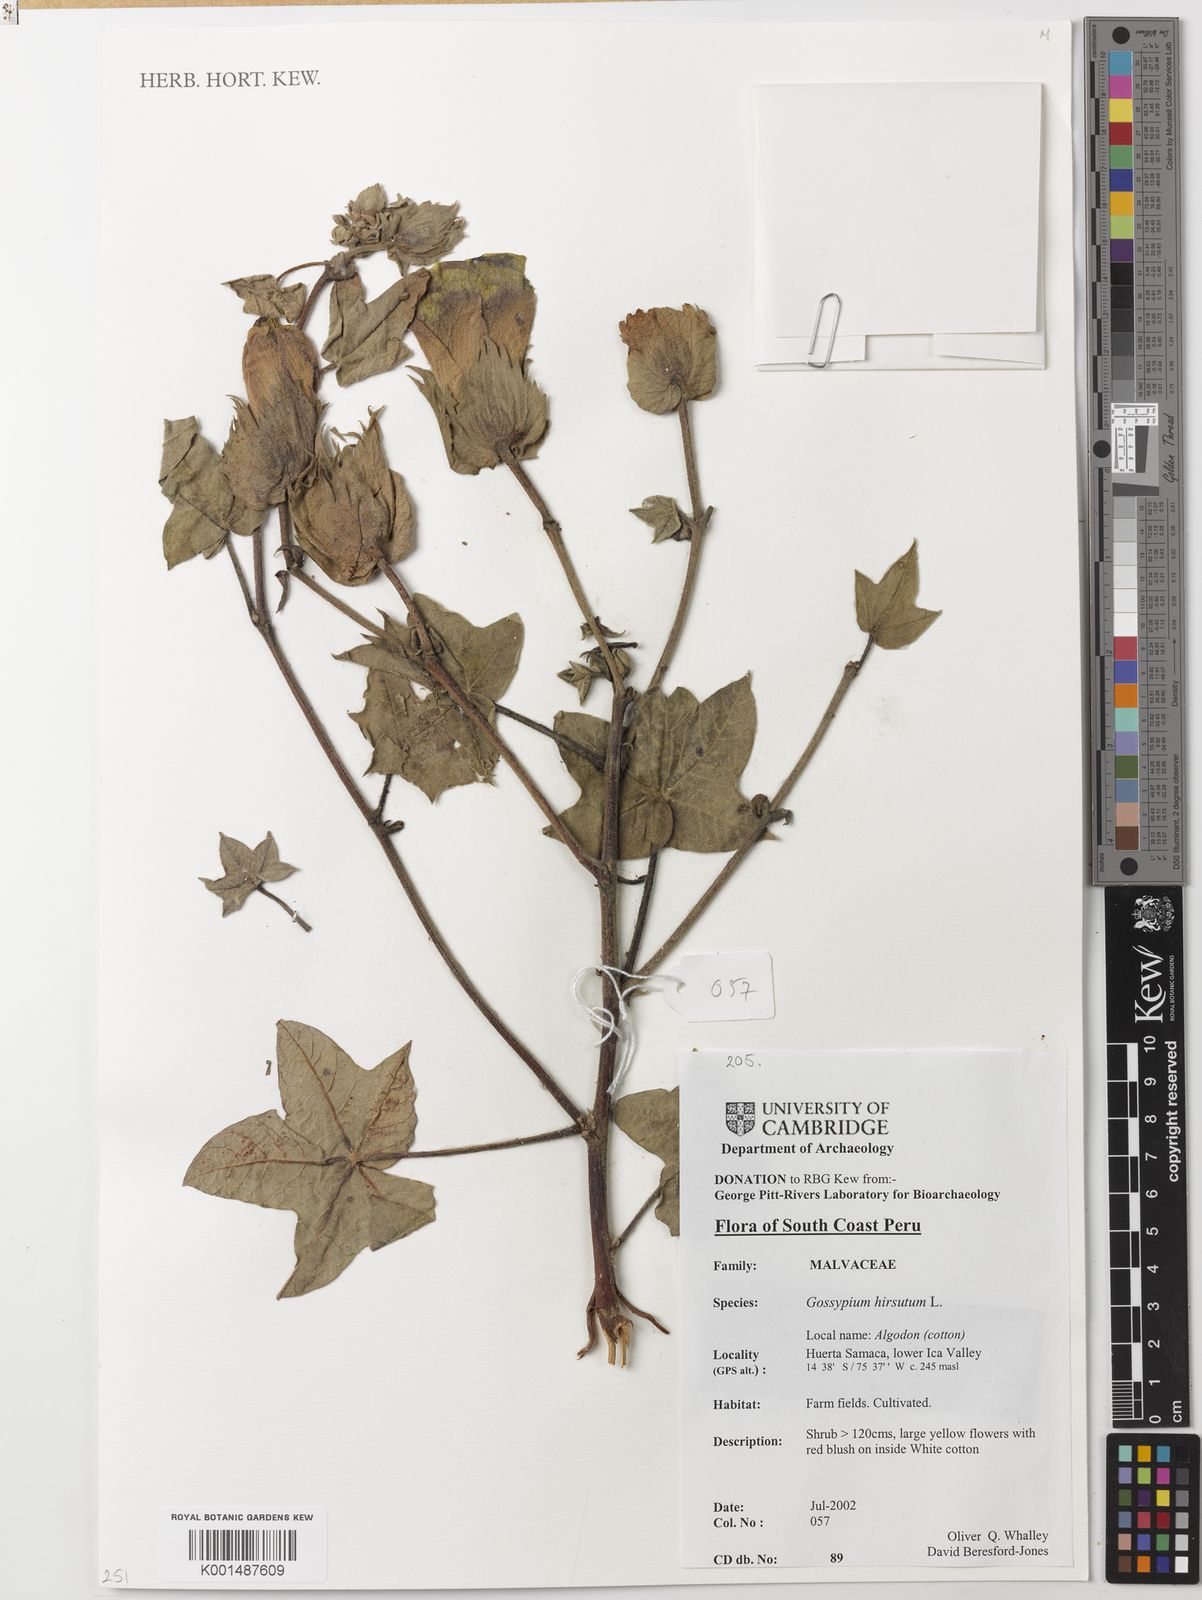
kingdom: Plantae
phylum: Tracheophyta
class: Magnoliopsida
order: Malvales
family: Malvaceae
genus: Gossypium
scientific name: Gossypium hirsutum
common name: Cotton
